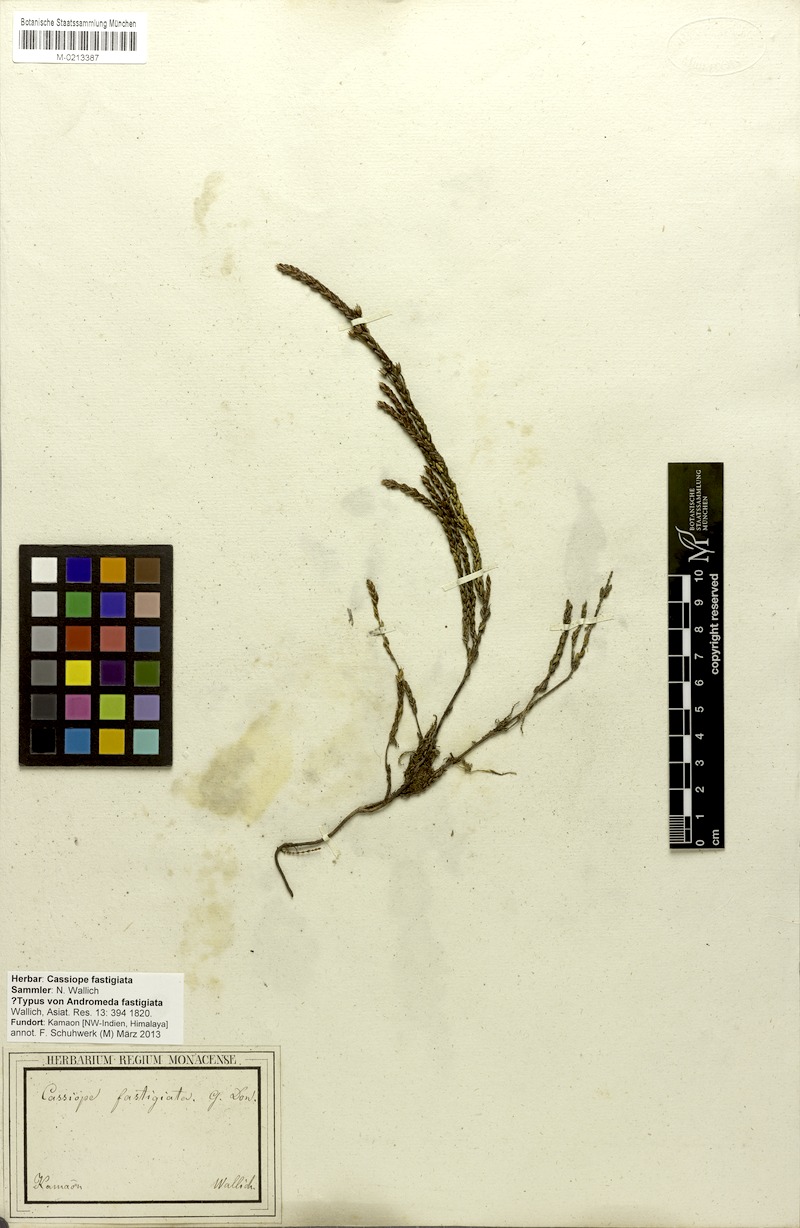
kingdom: Plantae
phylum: Tracheophyta
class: Magnoliopsida
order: Ericales
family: Ericaceae
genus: Cassiope
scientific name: Cassiope fastigiata
